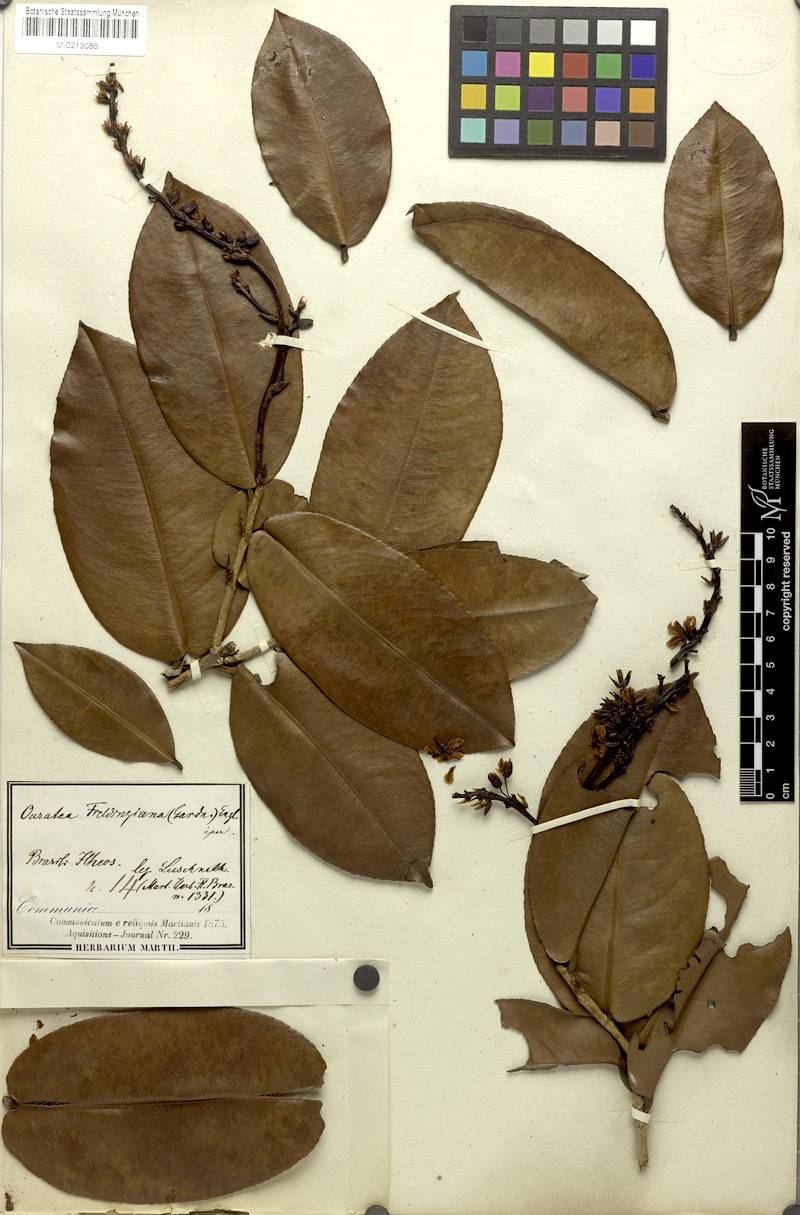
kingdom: Plantae
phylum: Tracheophyta
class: Magnoliopsida
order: Malpighiales
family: Ochnaceae
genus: Ouratea
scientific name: Ouratea fieldingiana
